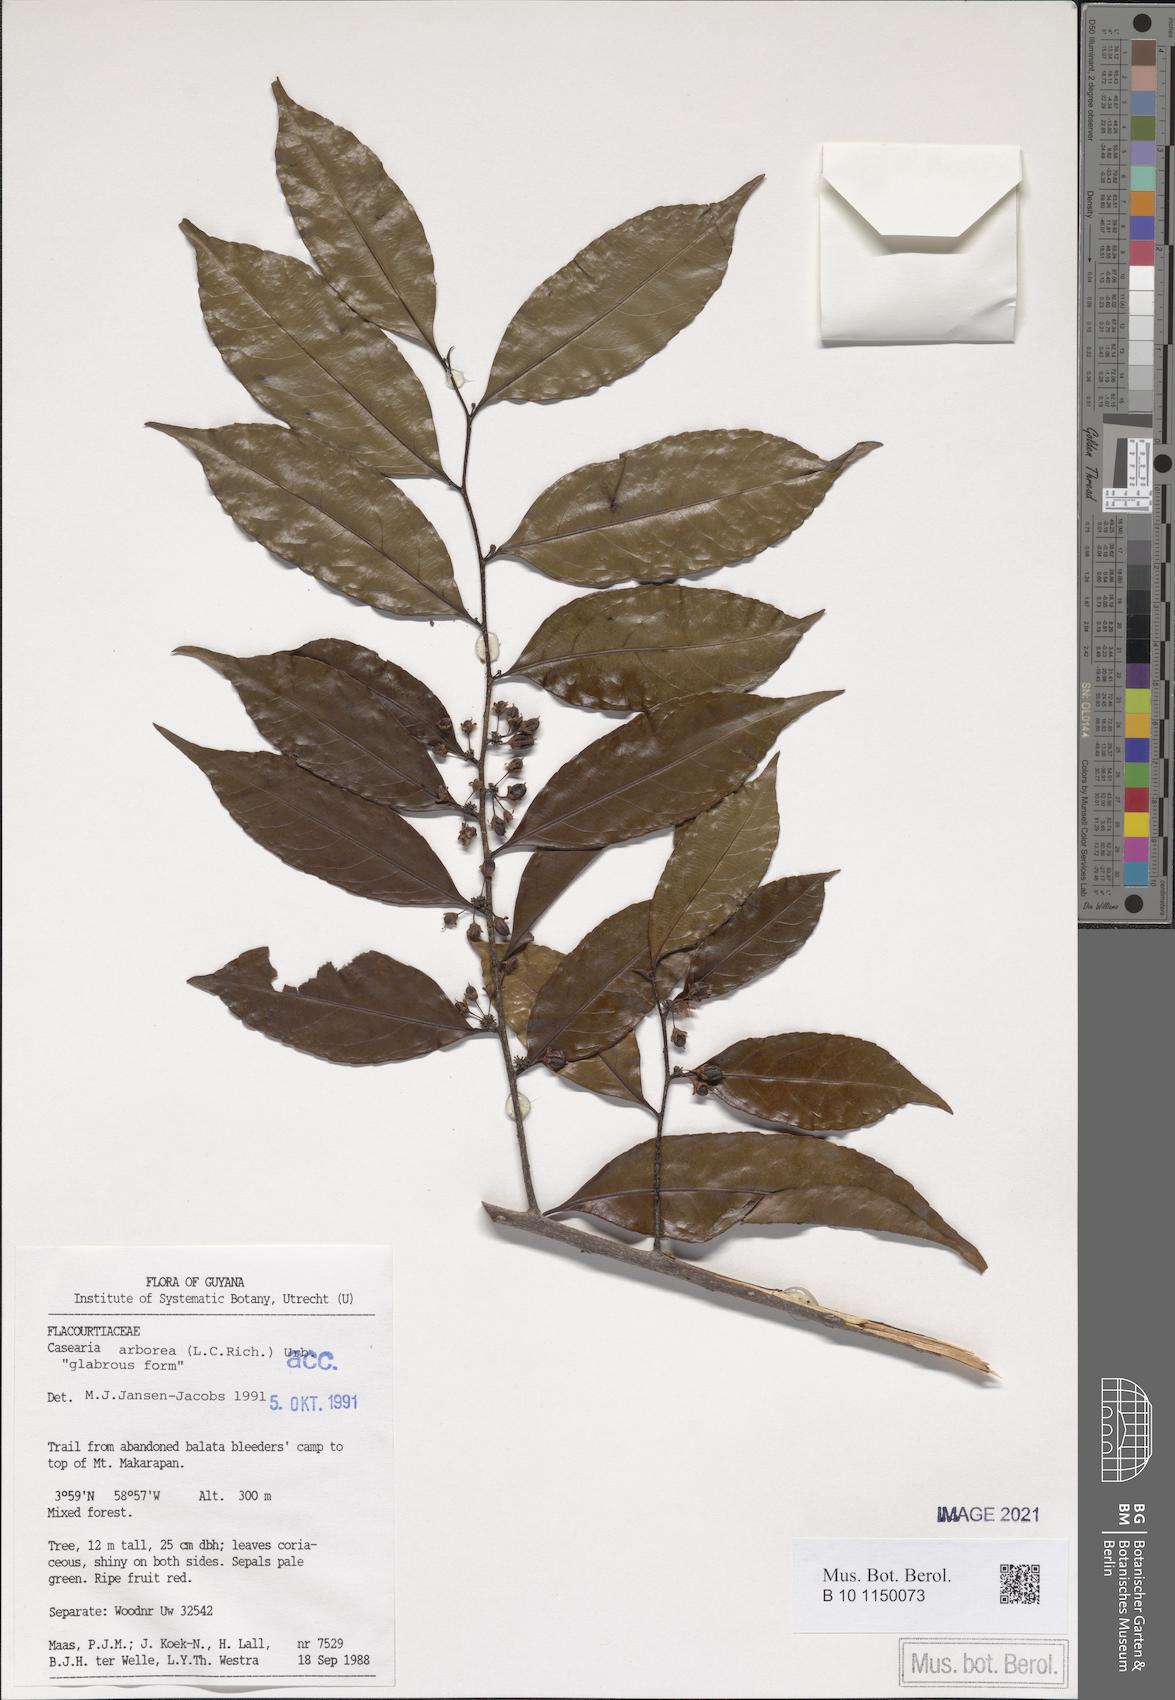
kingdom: Plantae
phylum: Tracheophyta
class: Magnoliopsida
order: Malpighiales
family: Salicaceae
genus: Casearia
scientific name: Casearia arborea
